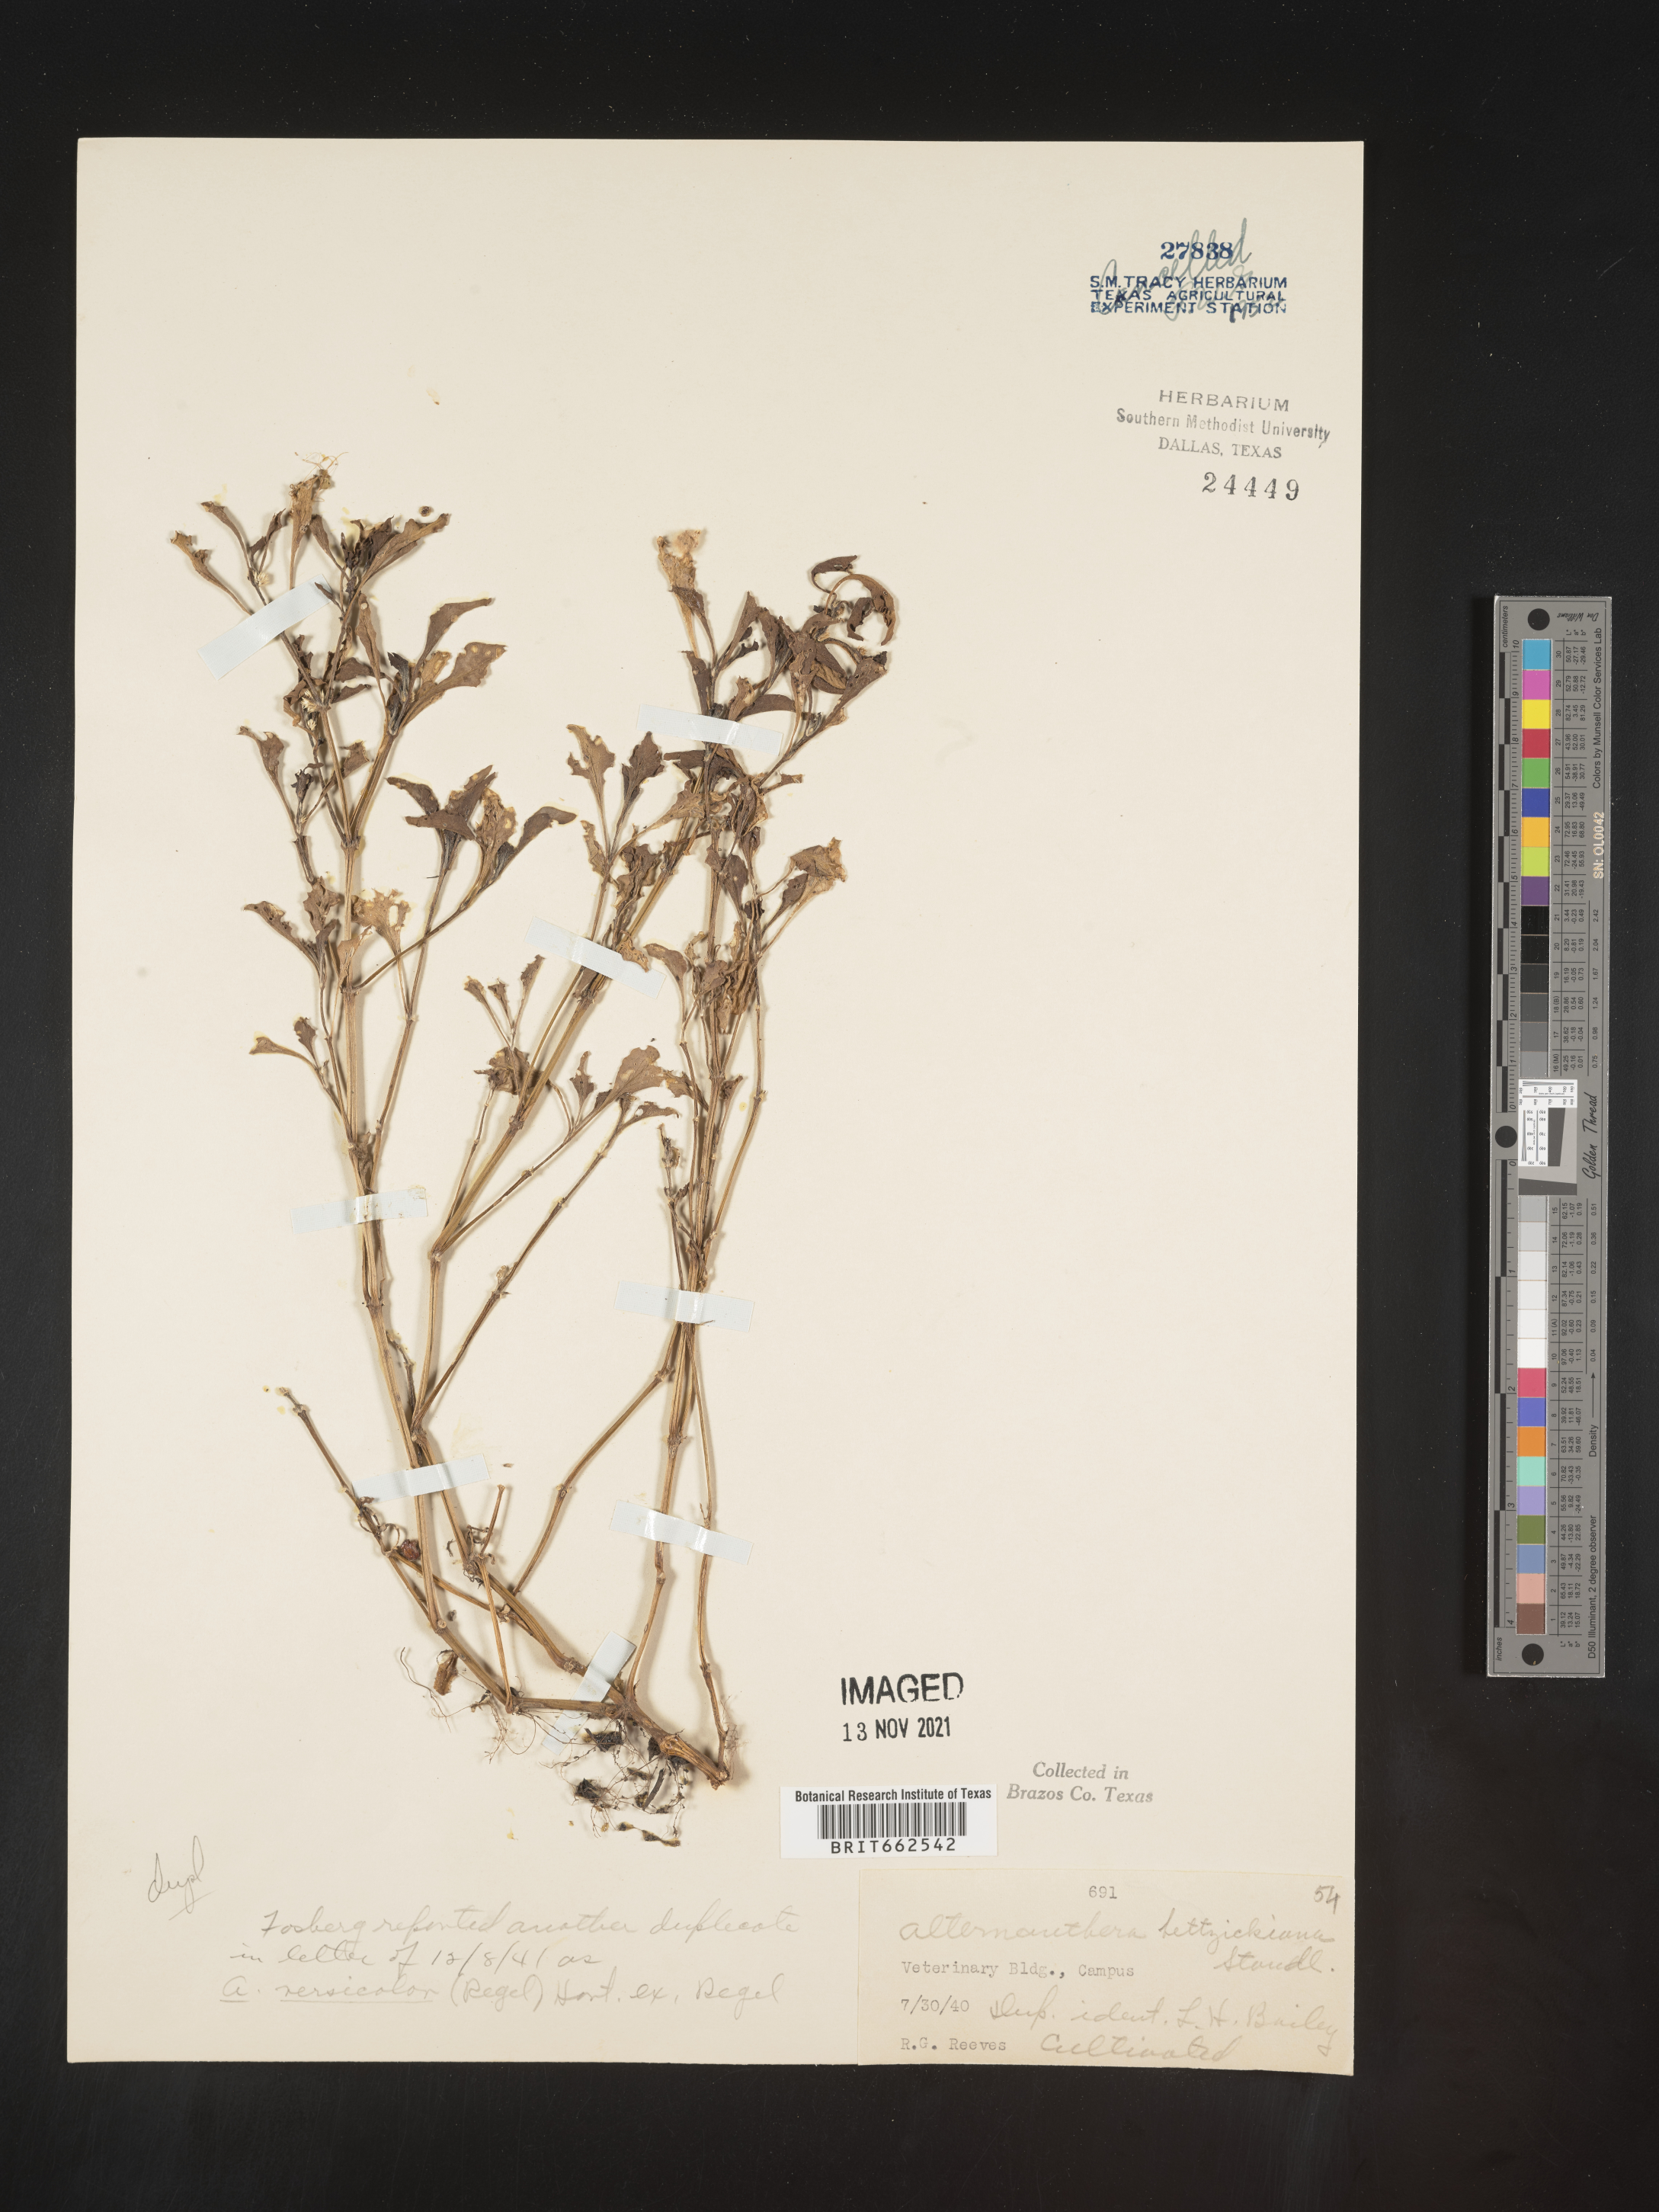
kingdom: Plantae
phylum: Tracheophyta
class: Magnoliopsida
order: Caryophyllales
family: Amaranthaceae
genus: Alternanthera
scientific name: Alternanthera
